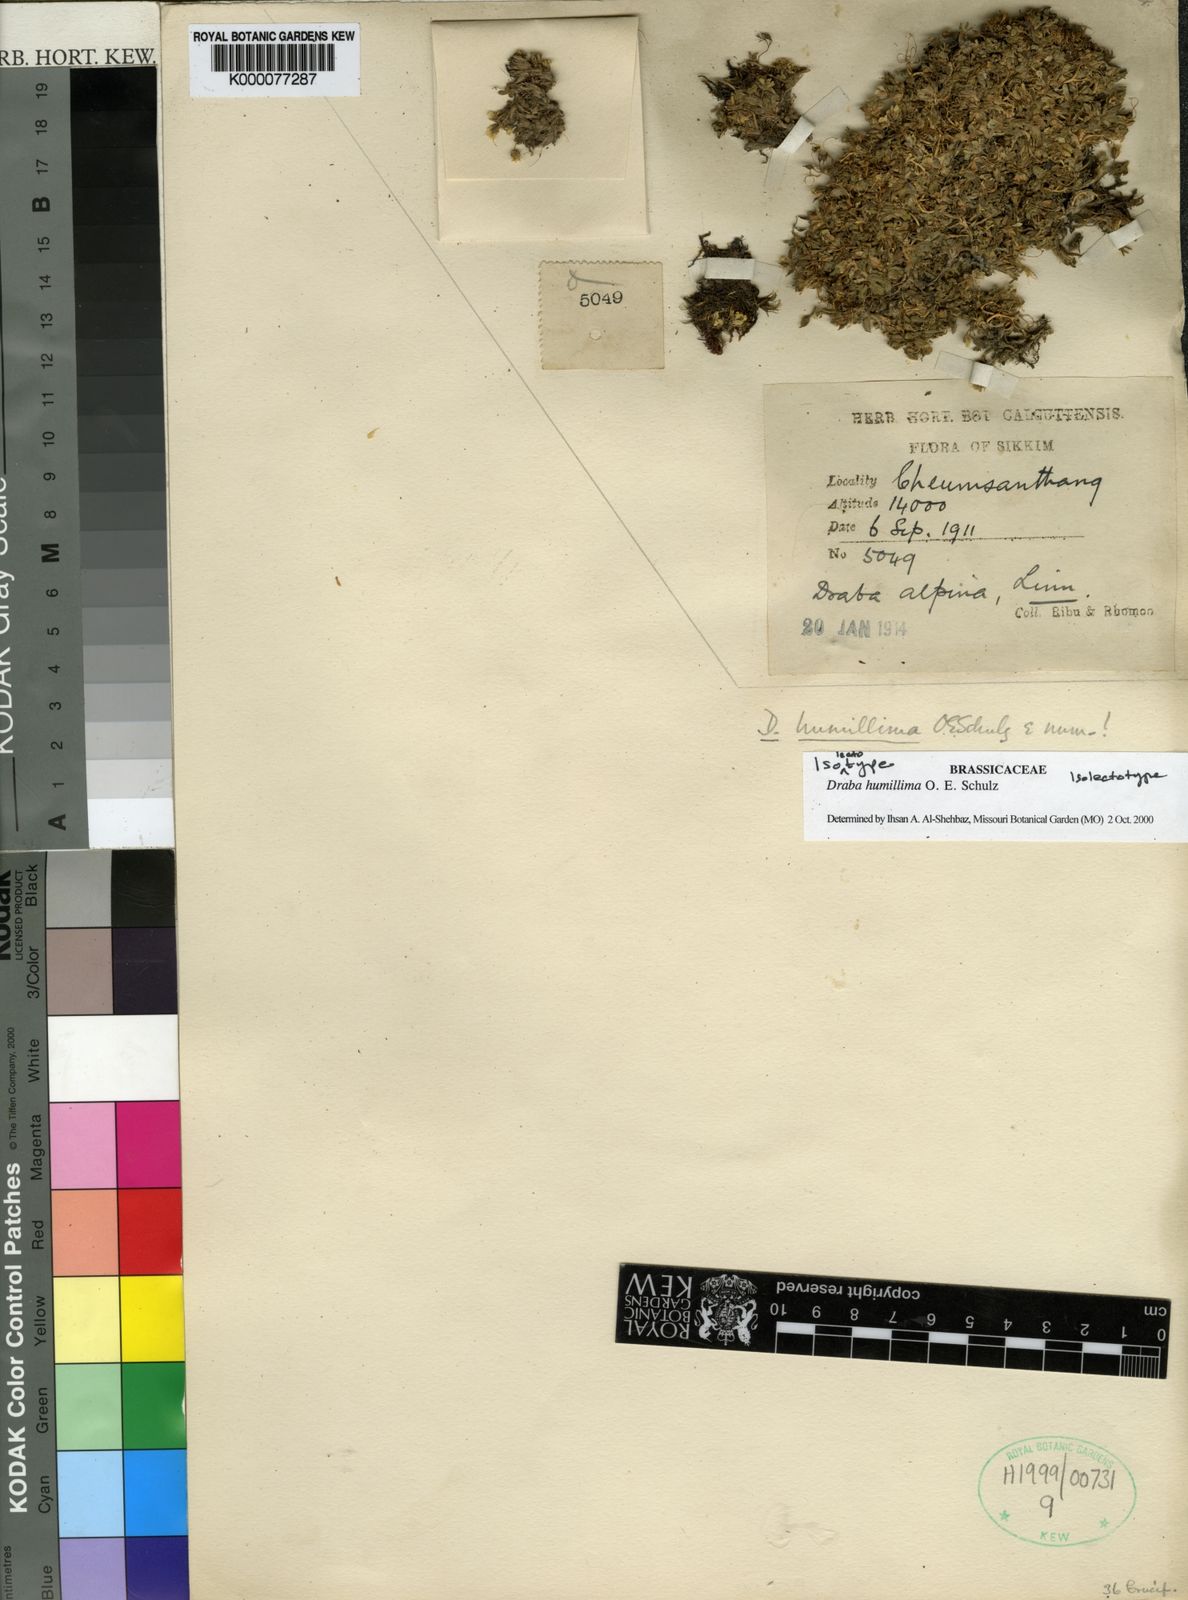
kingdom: Plantae
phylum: Tracheophyta
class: Magnoliopsida
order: Brassicales
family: Brassicaceae
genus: Draba
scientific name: Draba humillima
